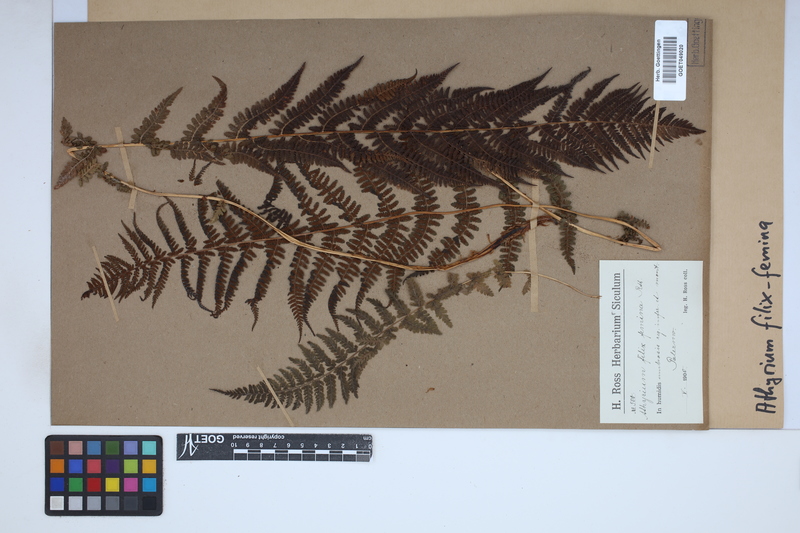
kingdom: Plantae
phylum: Tracheophyta
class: Polypodiopsida
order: Polypodiales
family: Athyriaceae
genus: Athyrium
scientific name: Athyrium filix-femina
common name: Lady fern
